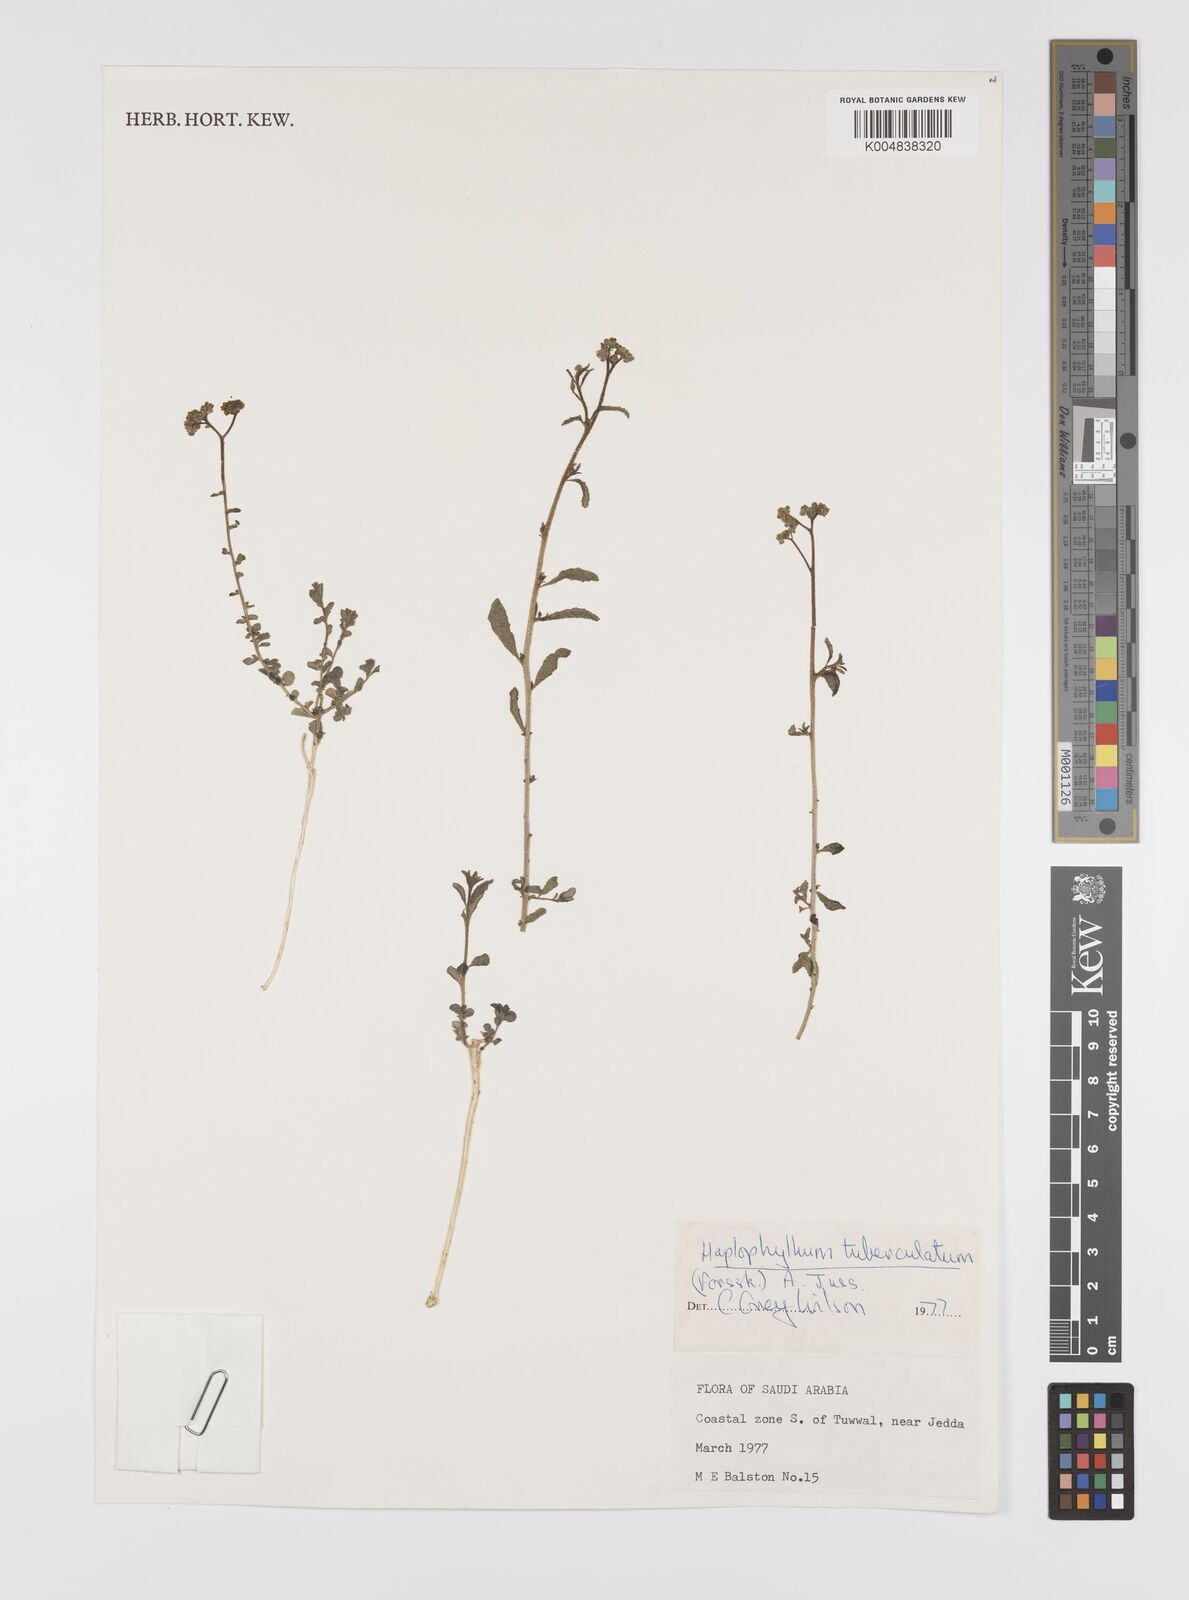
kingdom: Plantae
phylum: Tracheophyta
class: Magnoliopsida
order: Sapindales
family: Rutaceae
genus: Haplophyllum
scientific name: Haplophyllum tuberculatum
